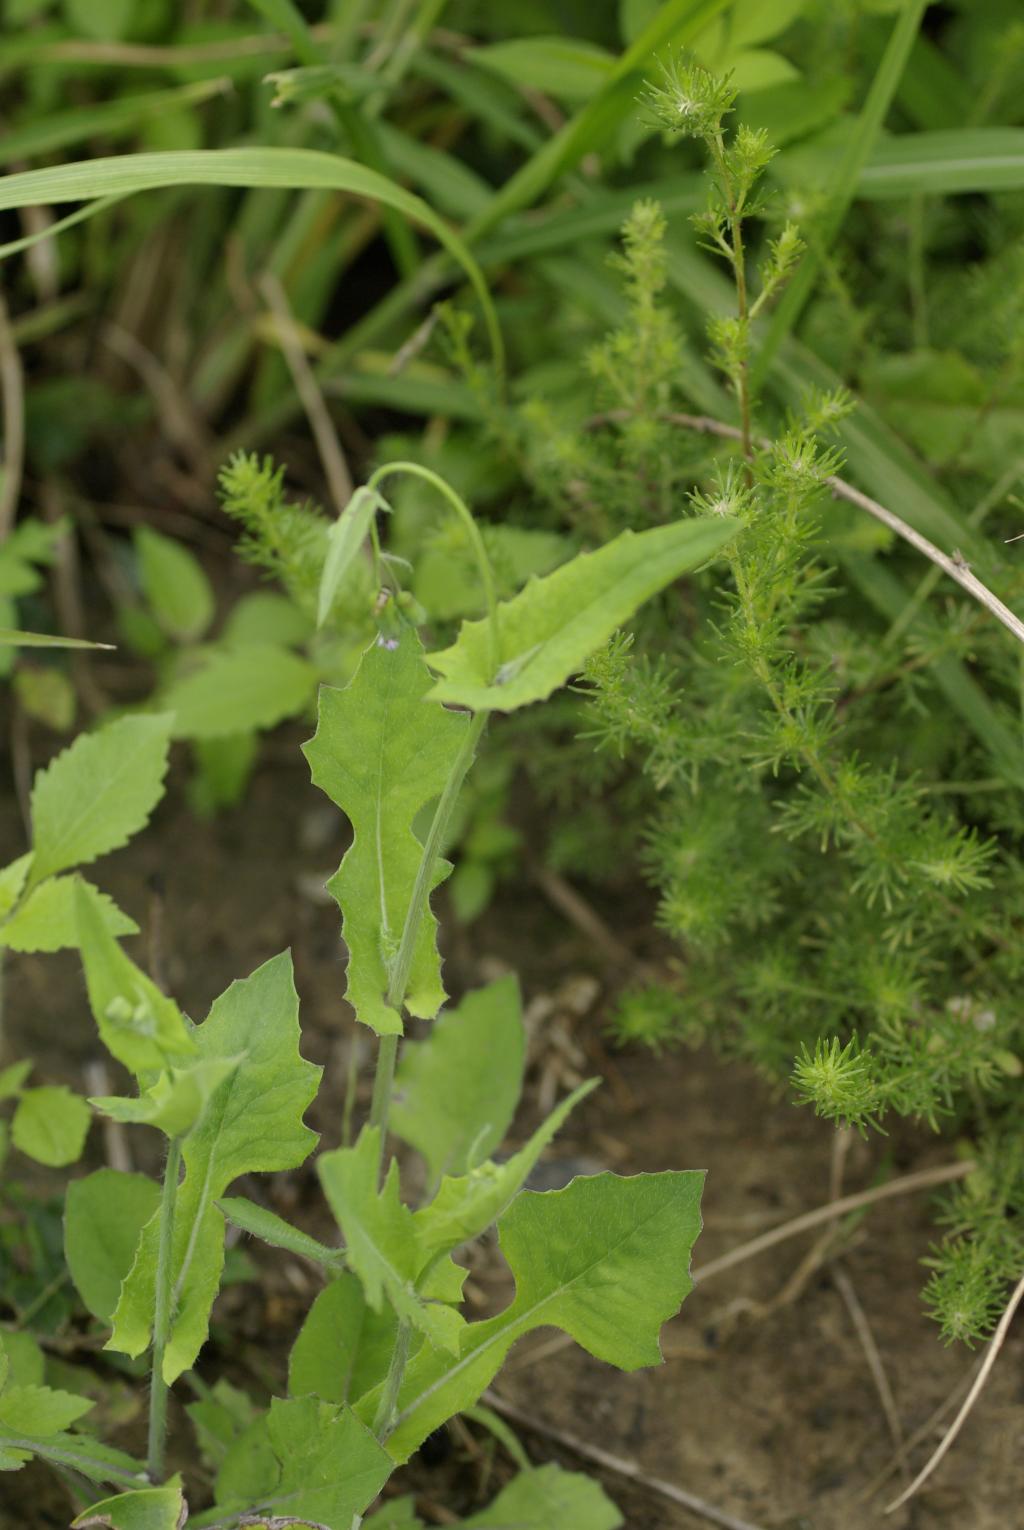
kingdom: Plantae
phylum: Tracheophyta
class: Magnoliopsida
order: Asterales
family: Asteraceae
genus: Emilia
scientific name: Emilia sonchifolia
